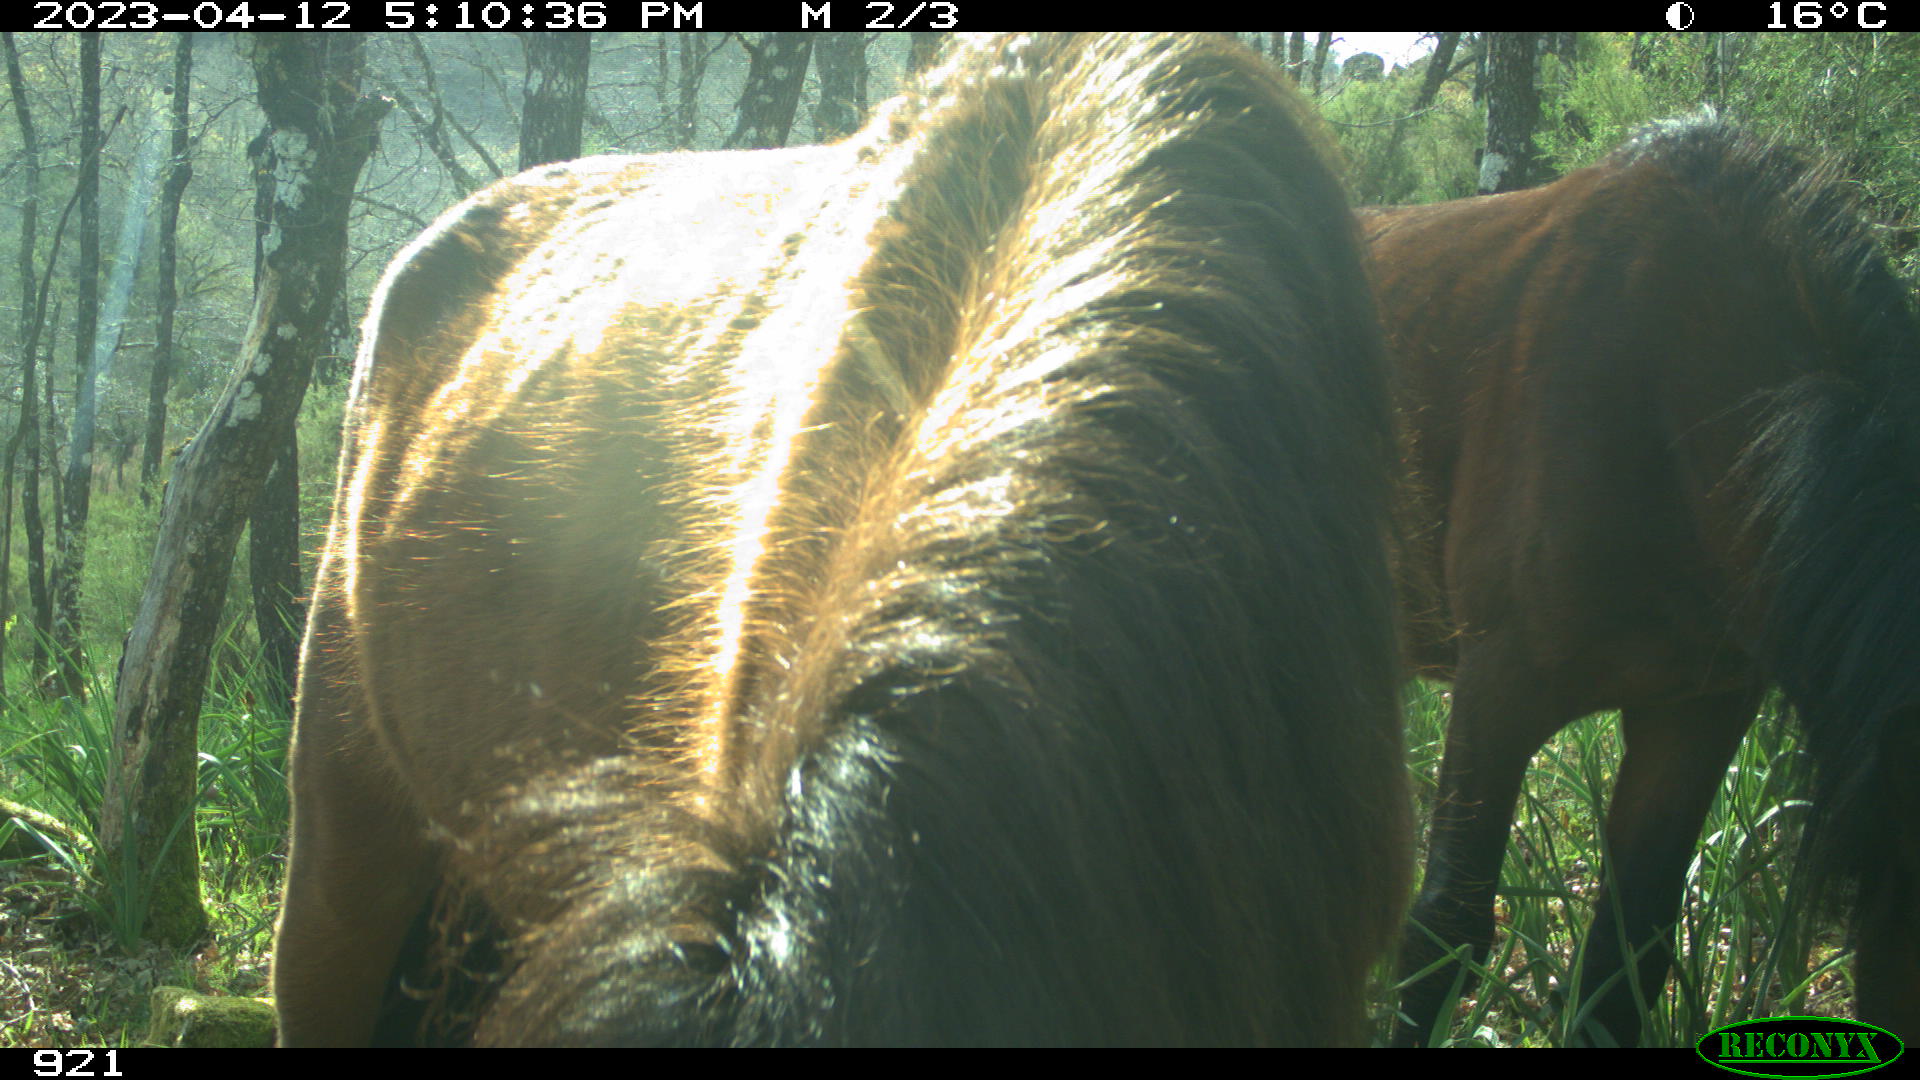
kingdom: Animalia
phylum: Chordata
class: Mammalia
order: Perissodactyla
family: Equidae
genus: Equus
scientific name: Equus caballus
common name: Horse
